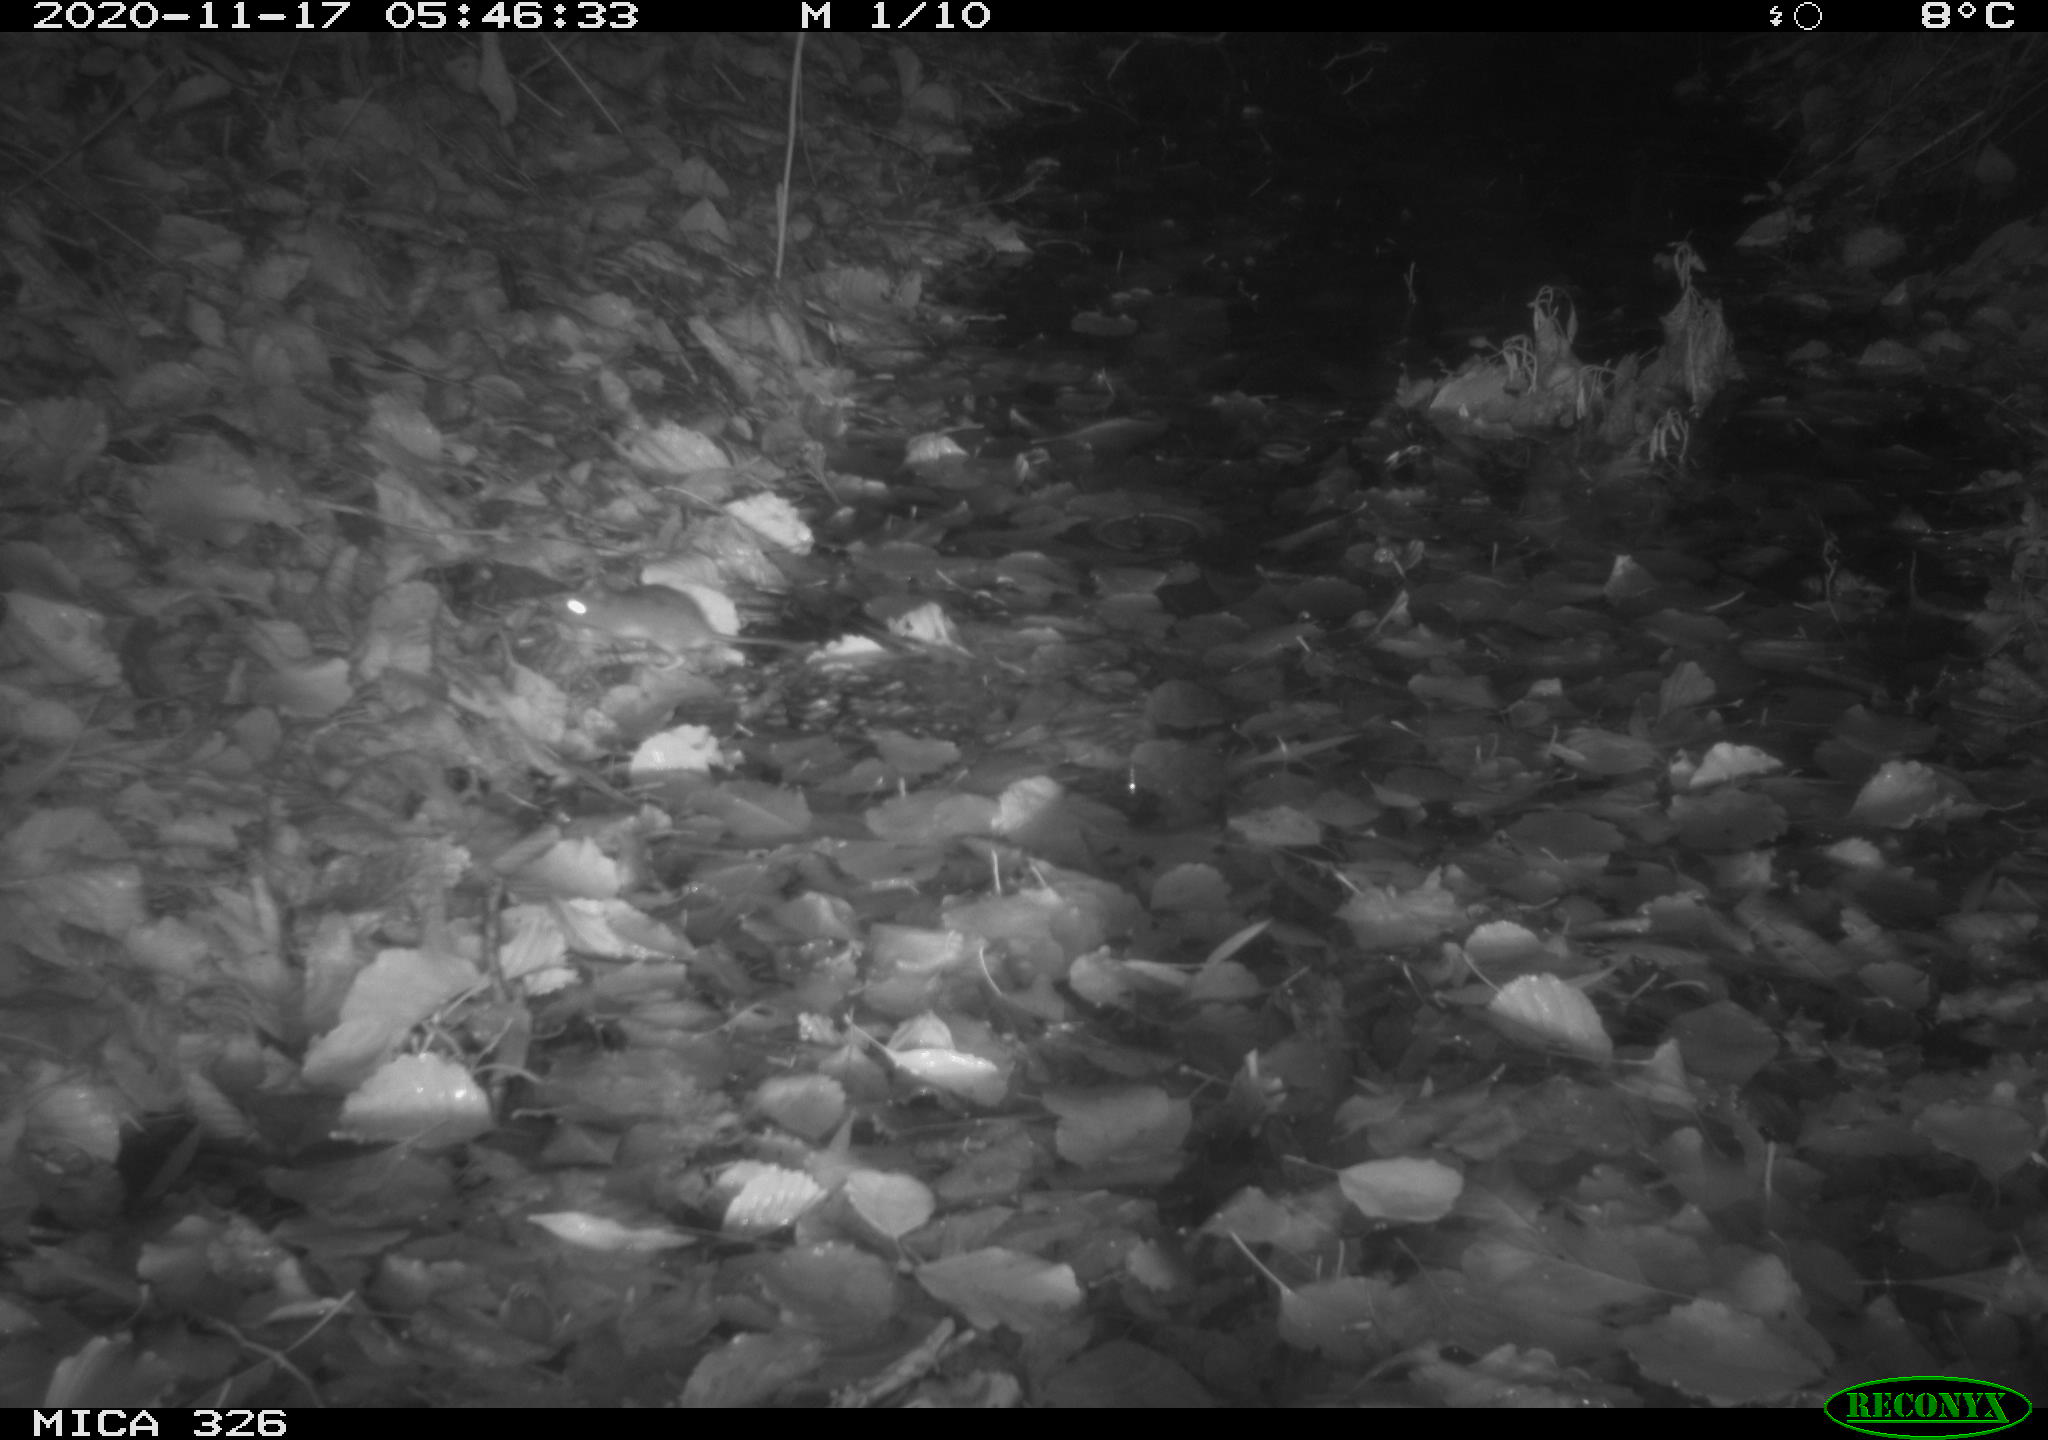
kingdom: Animalia
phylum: Chordata
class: Mammalia
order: Rodentia
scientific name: Rodentia
